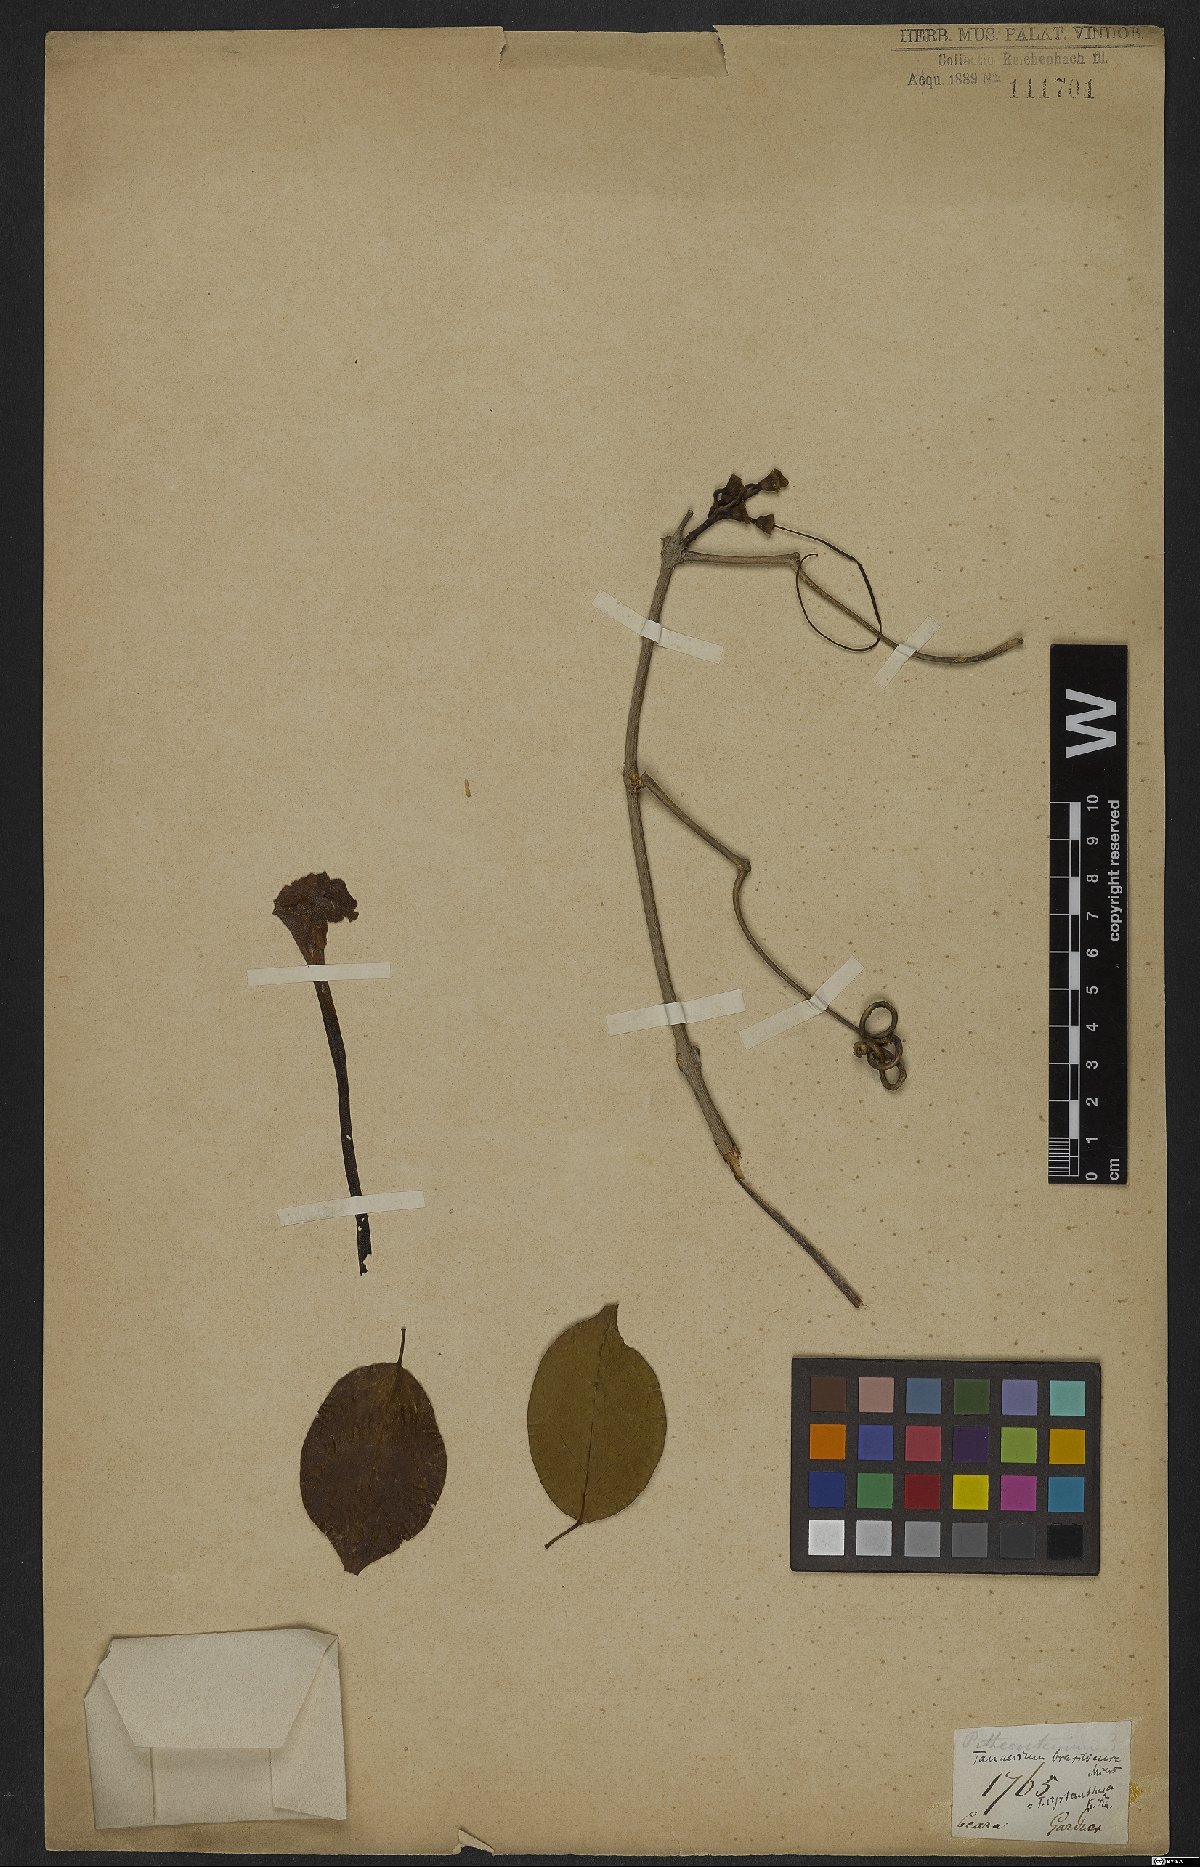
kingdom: Plantae
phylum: Tracheophyta
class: Magnoliopsida
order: Lamiales
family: Bignoniaceae
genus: Tanaecium
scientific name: Tanaecium cyrtanthum
